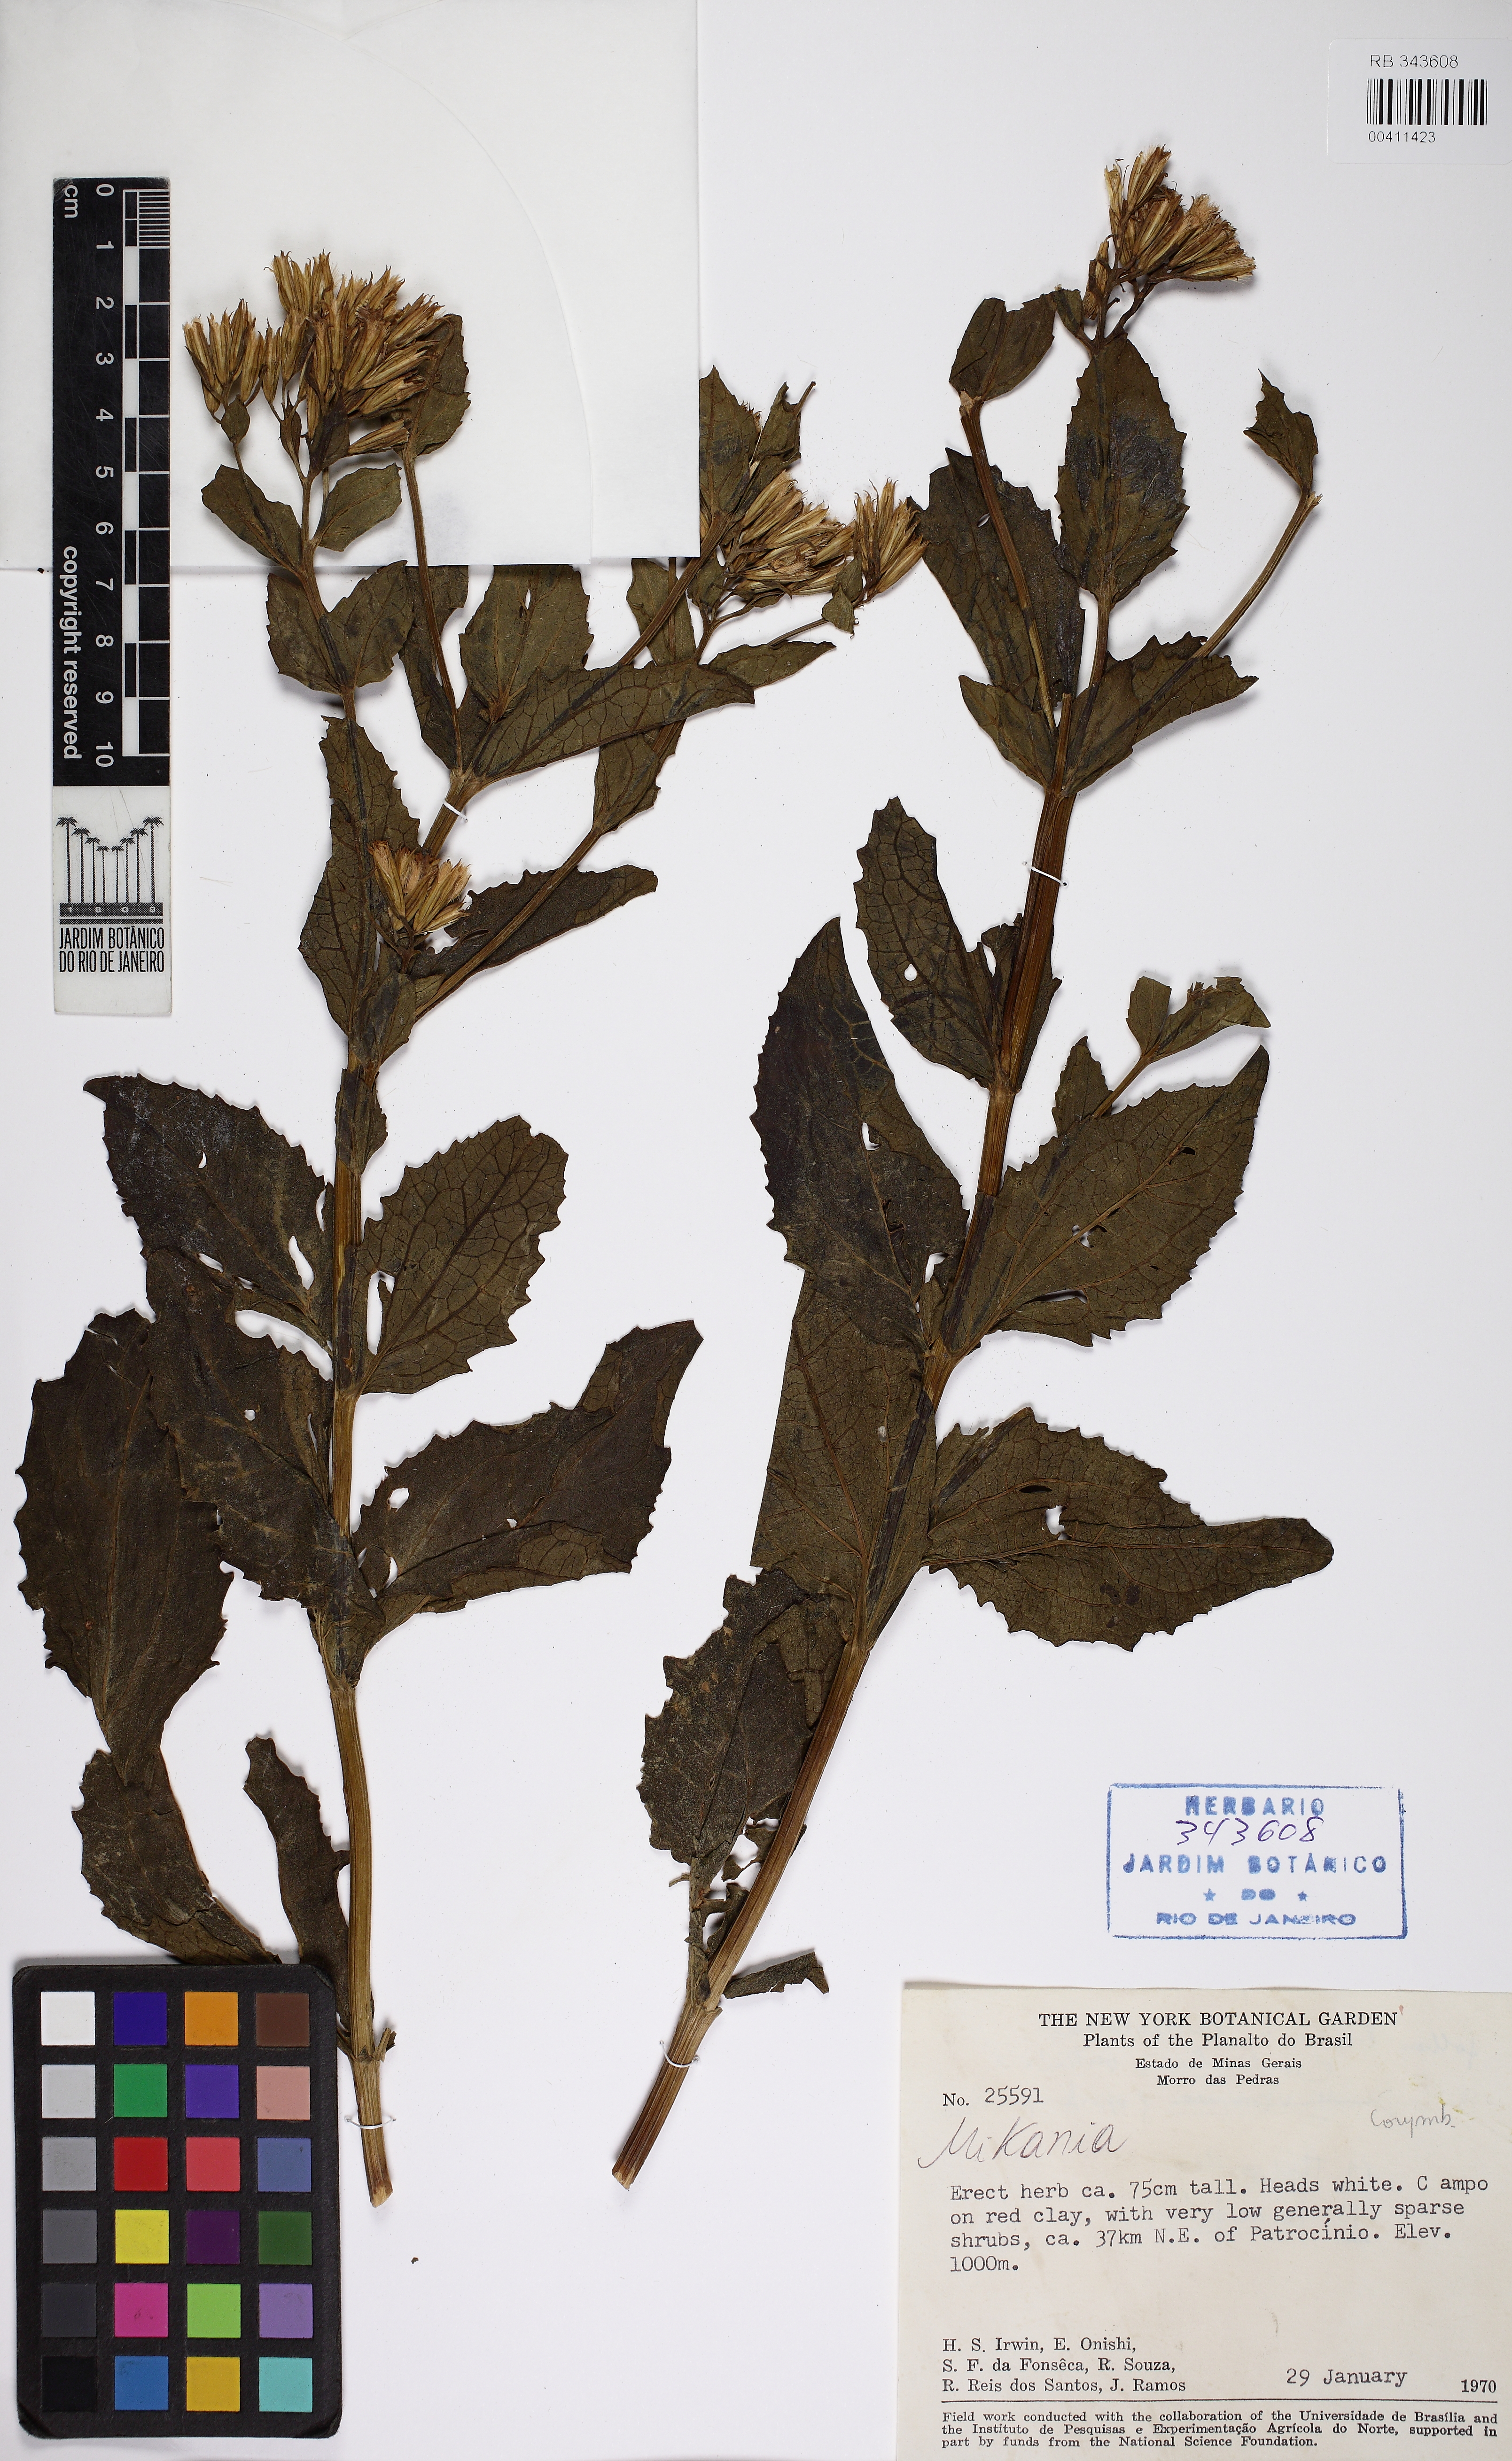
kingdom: Plantae
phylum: Tracheophyta
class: Magnoliopsida
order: Asterales
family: Asteraceae
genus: Mikania
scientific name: Mikania
